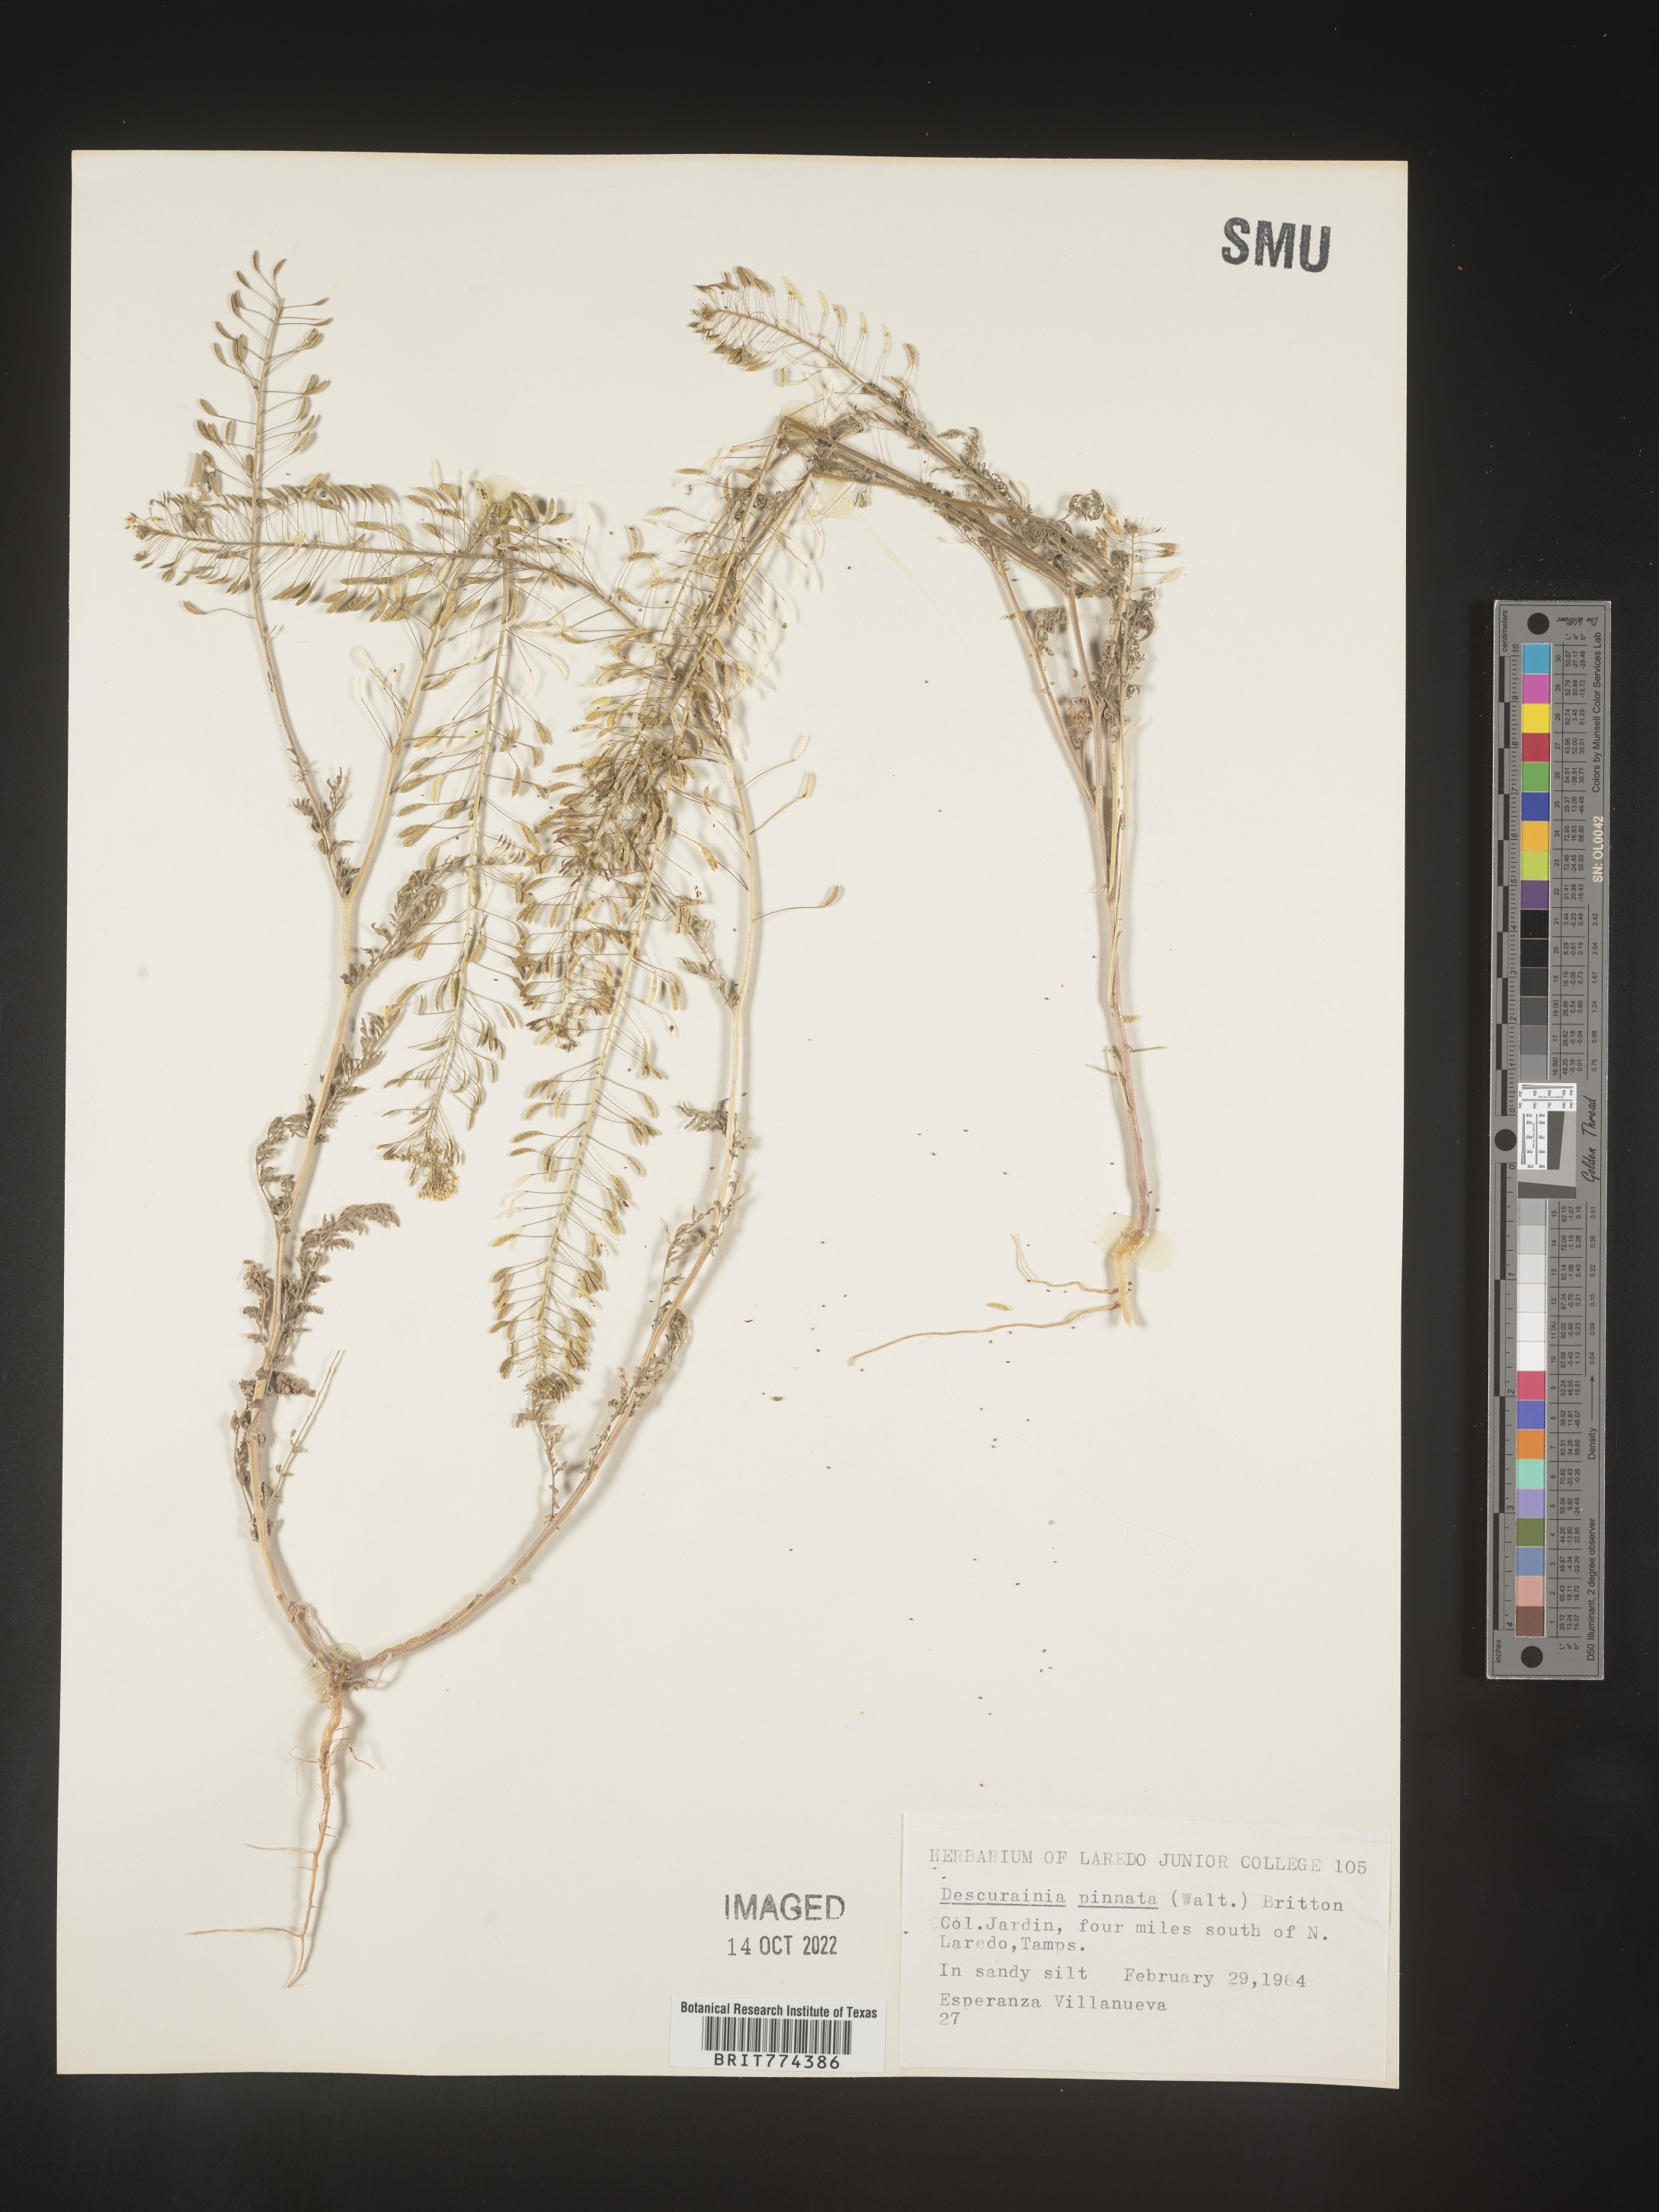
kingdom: Plantae
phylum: Tracheophyta
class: Magnoliopsida
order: Brassicales
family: Brassicaceae
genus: Descurainia
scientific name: Descurainia
